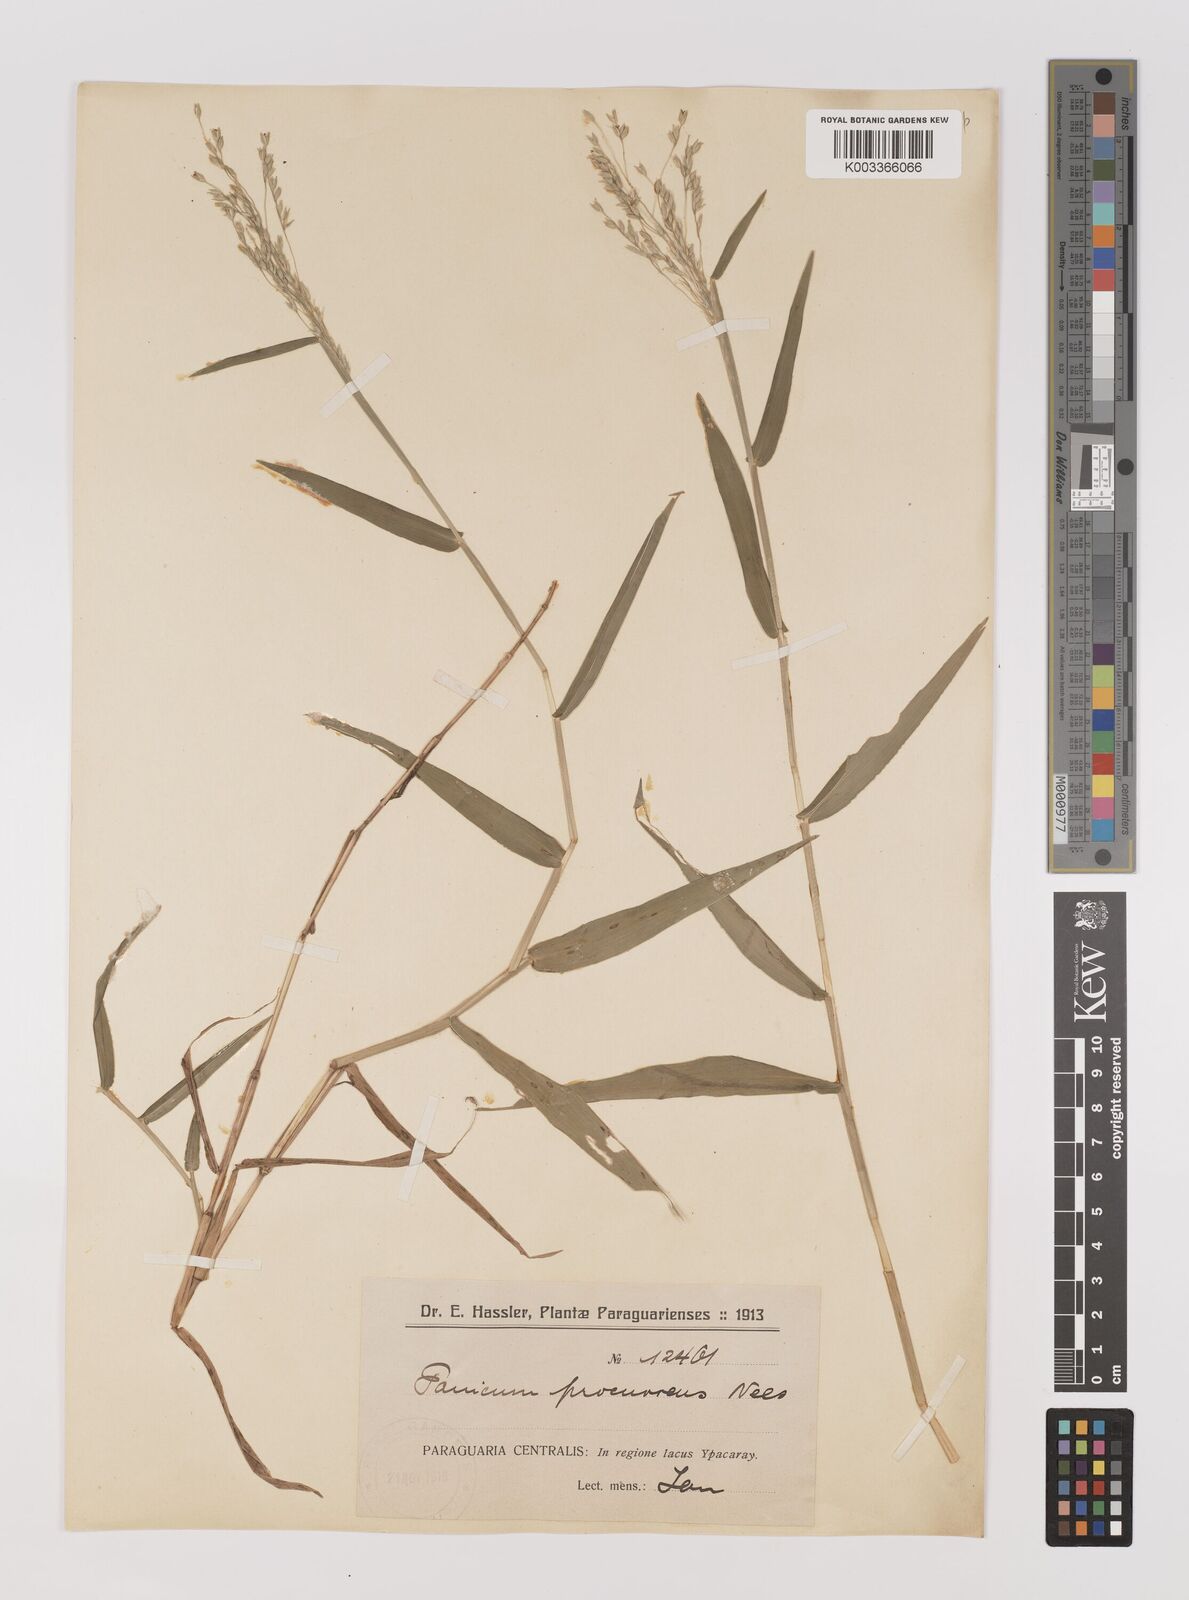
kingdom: Plantae
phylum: Tracheophyta
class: Liliopsida
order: Poales
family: Poaceae
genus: Oedochloa
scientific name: Oedochloa procurrens
